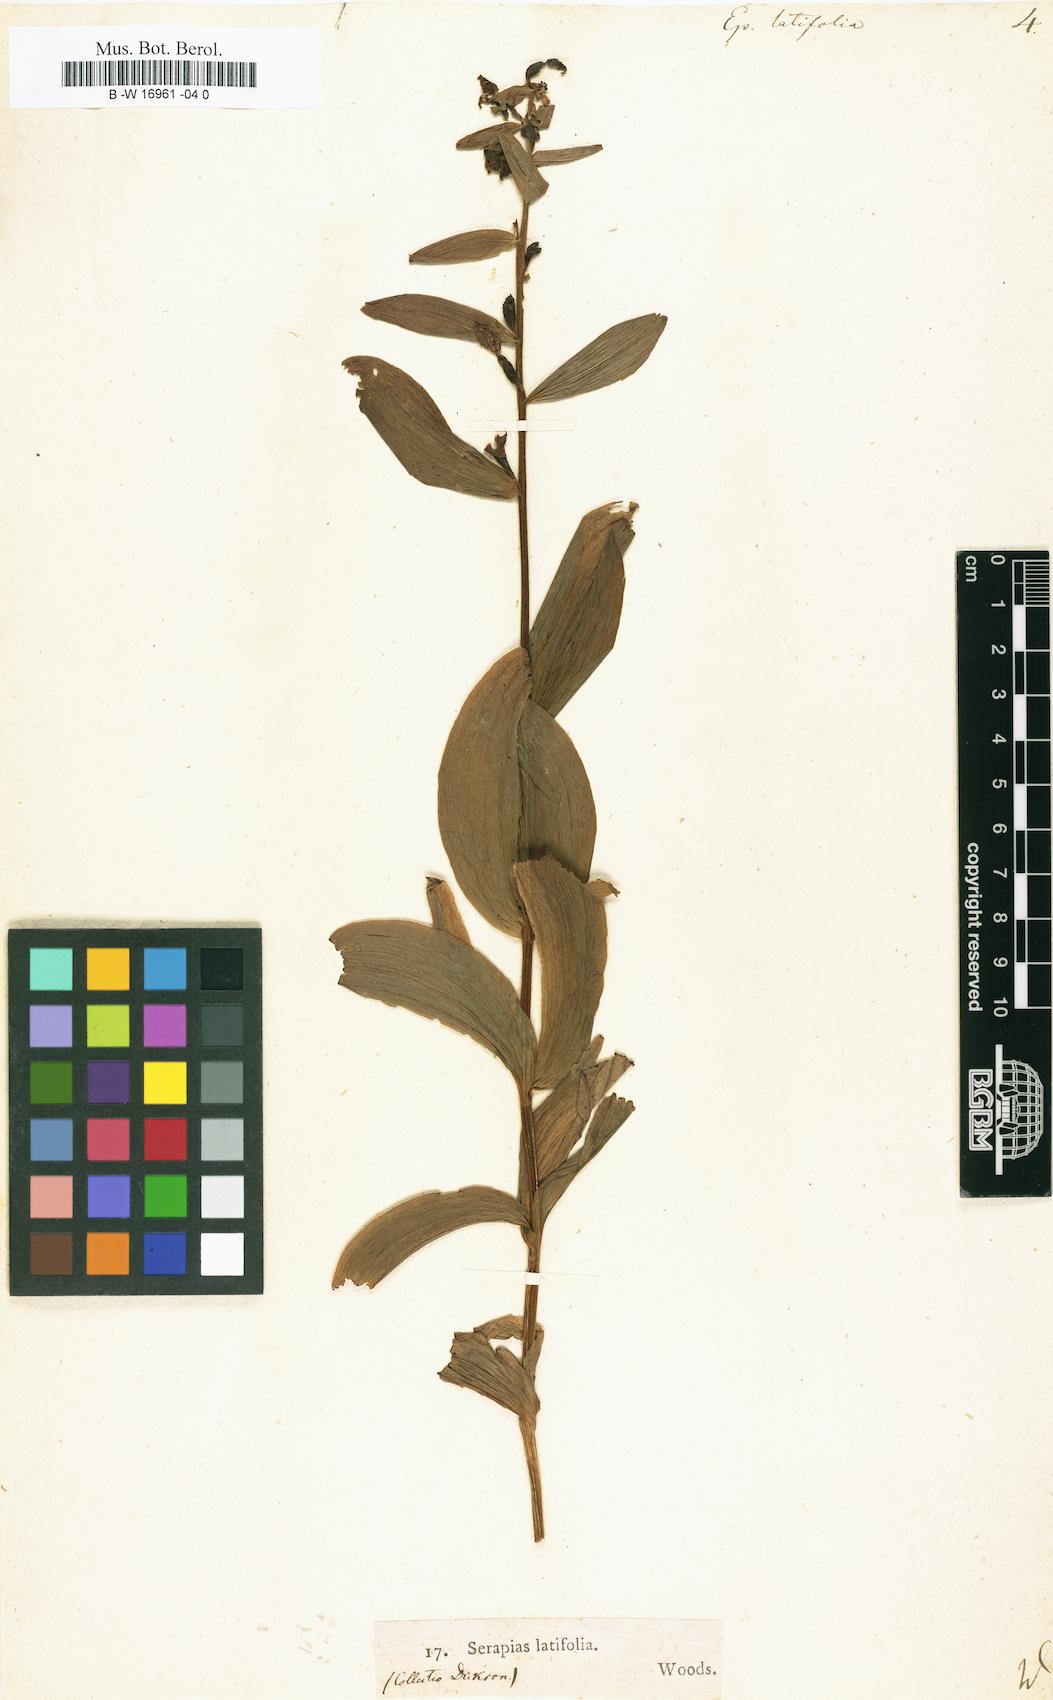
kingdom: Plantae
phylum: Tracheophyta
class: Liliopsida
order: Asparagales
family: Orchidaceae
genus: Epipactis
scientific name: Epipactis helleborine
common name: Broad-leaved helleborine
